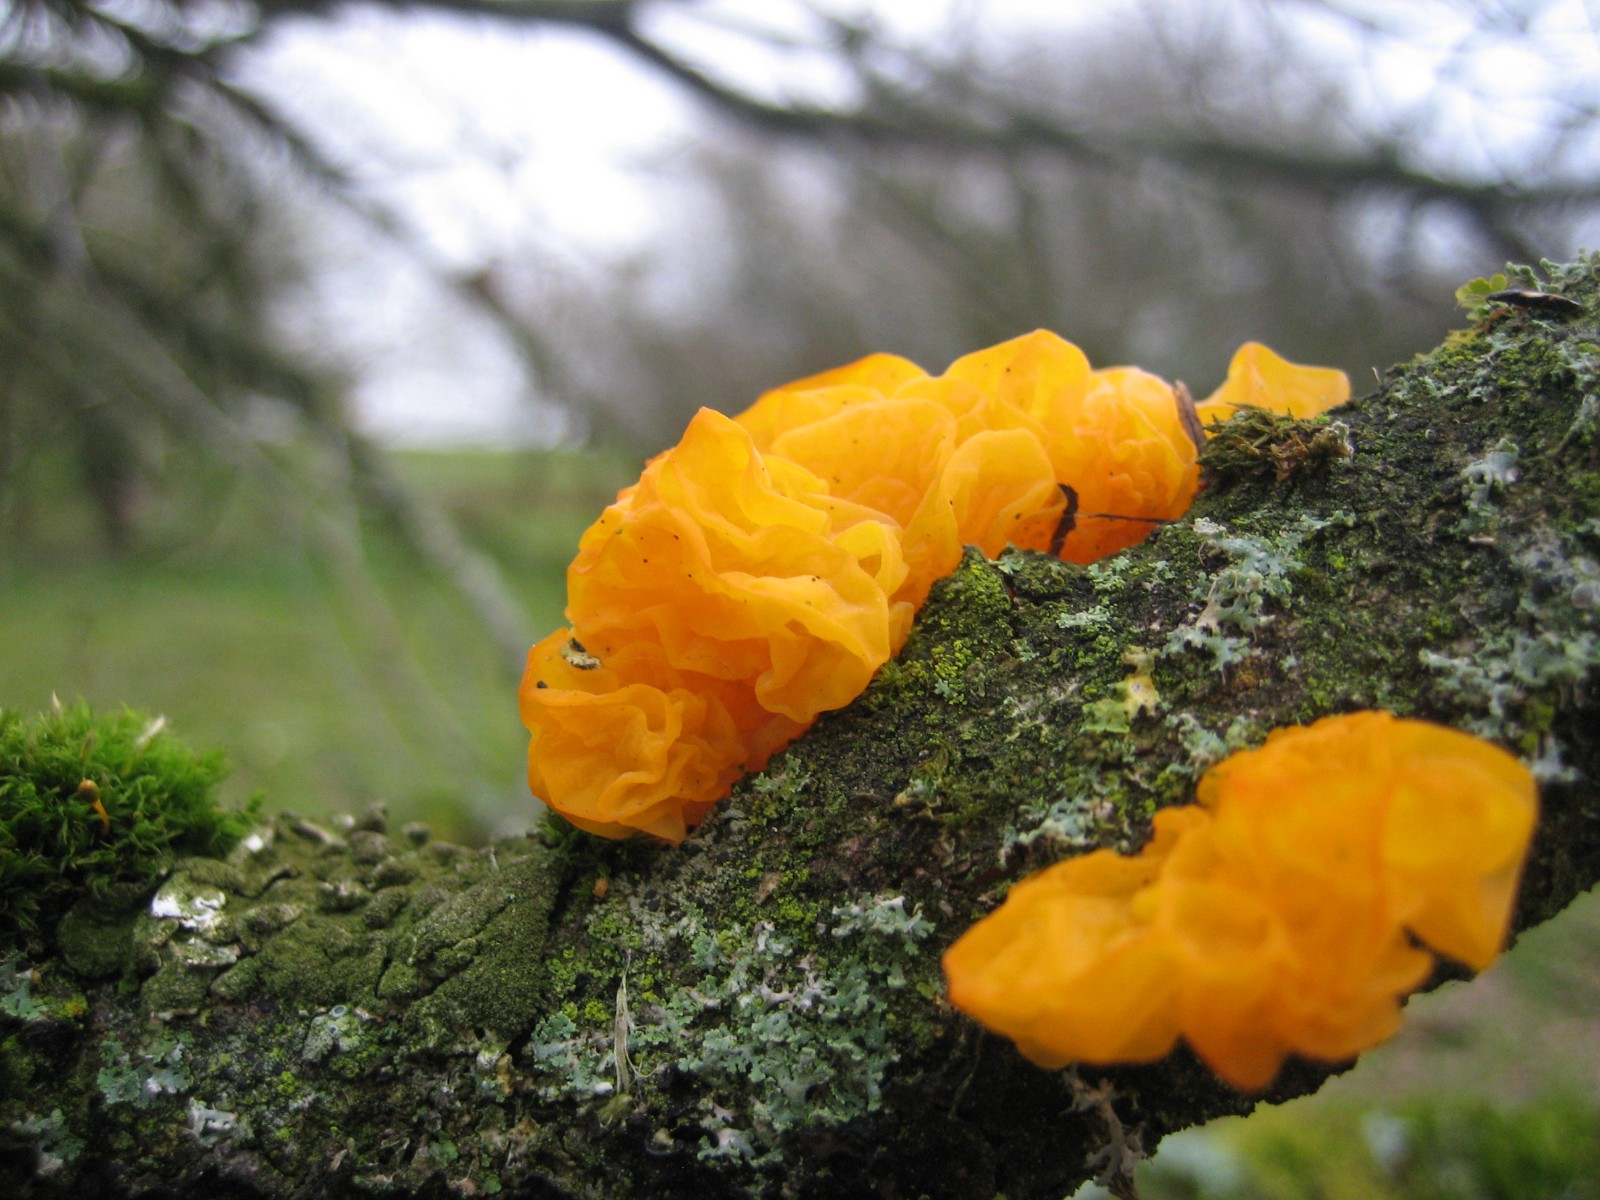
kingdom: Fungi
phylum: Basidiomycota
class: Tremellomycetes
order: Tremellales
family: Tremellaceae
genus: Tremella
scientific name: Tremella mesenterica
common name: gul bævresvamp
